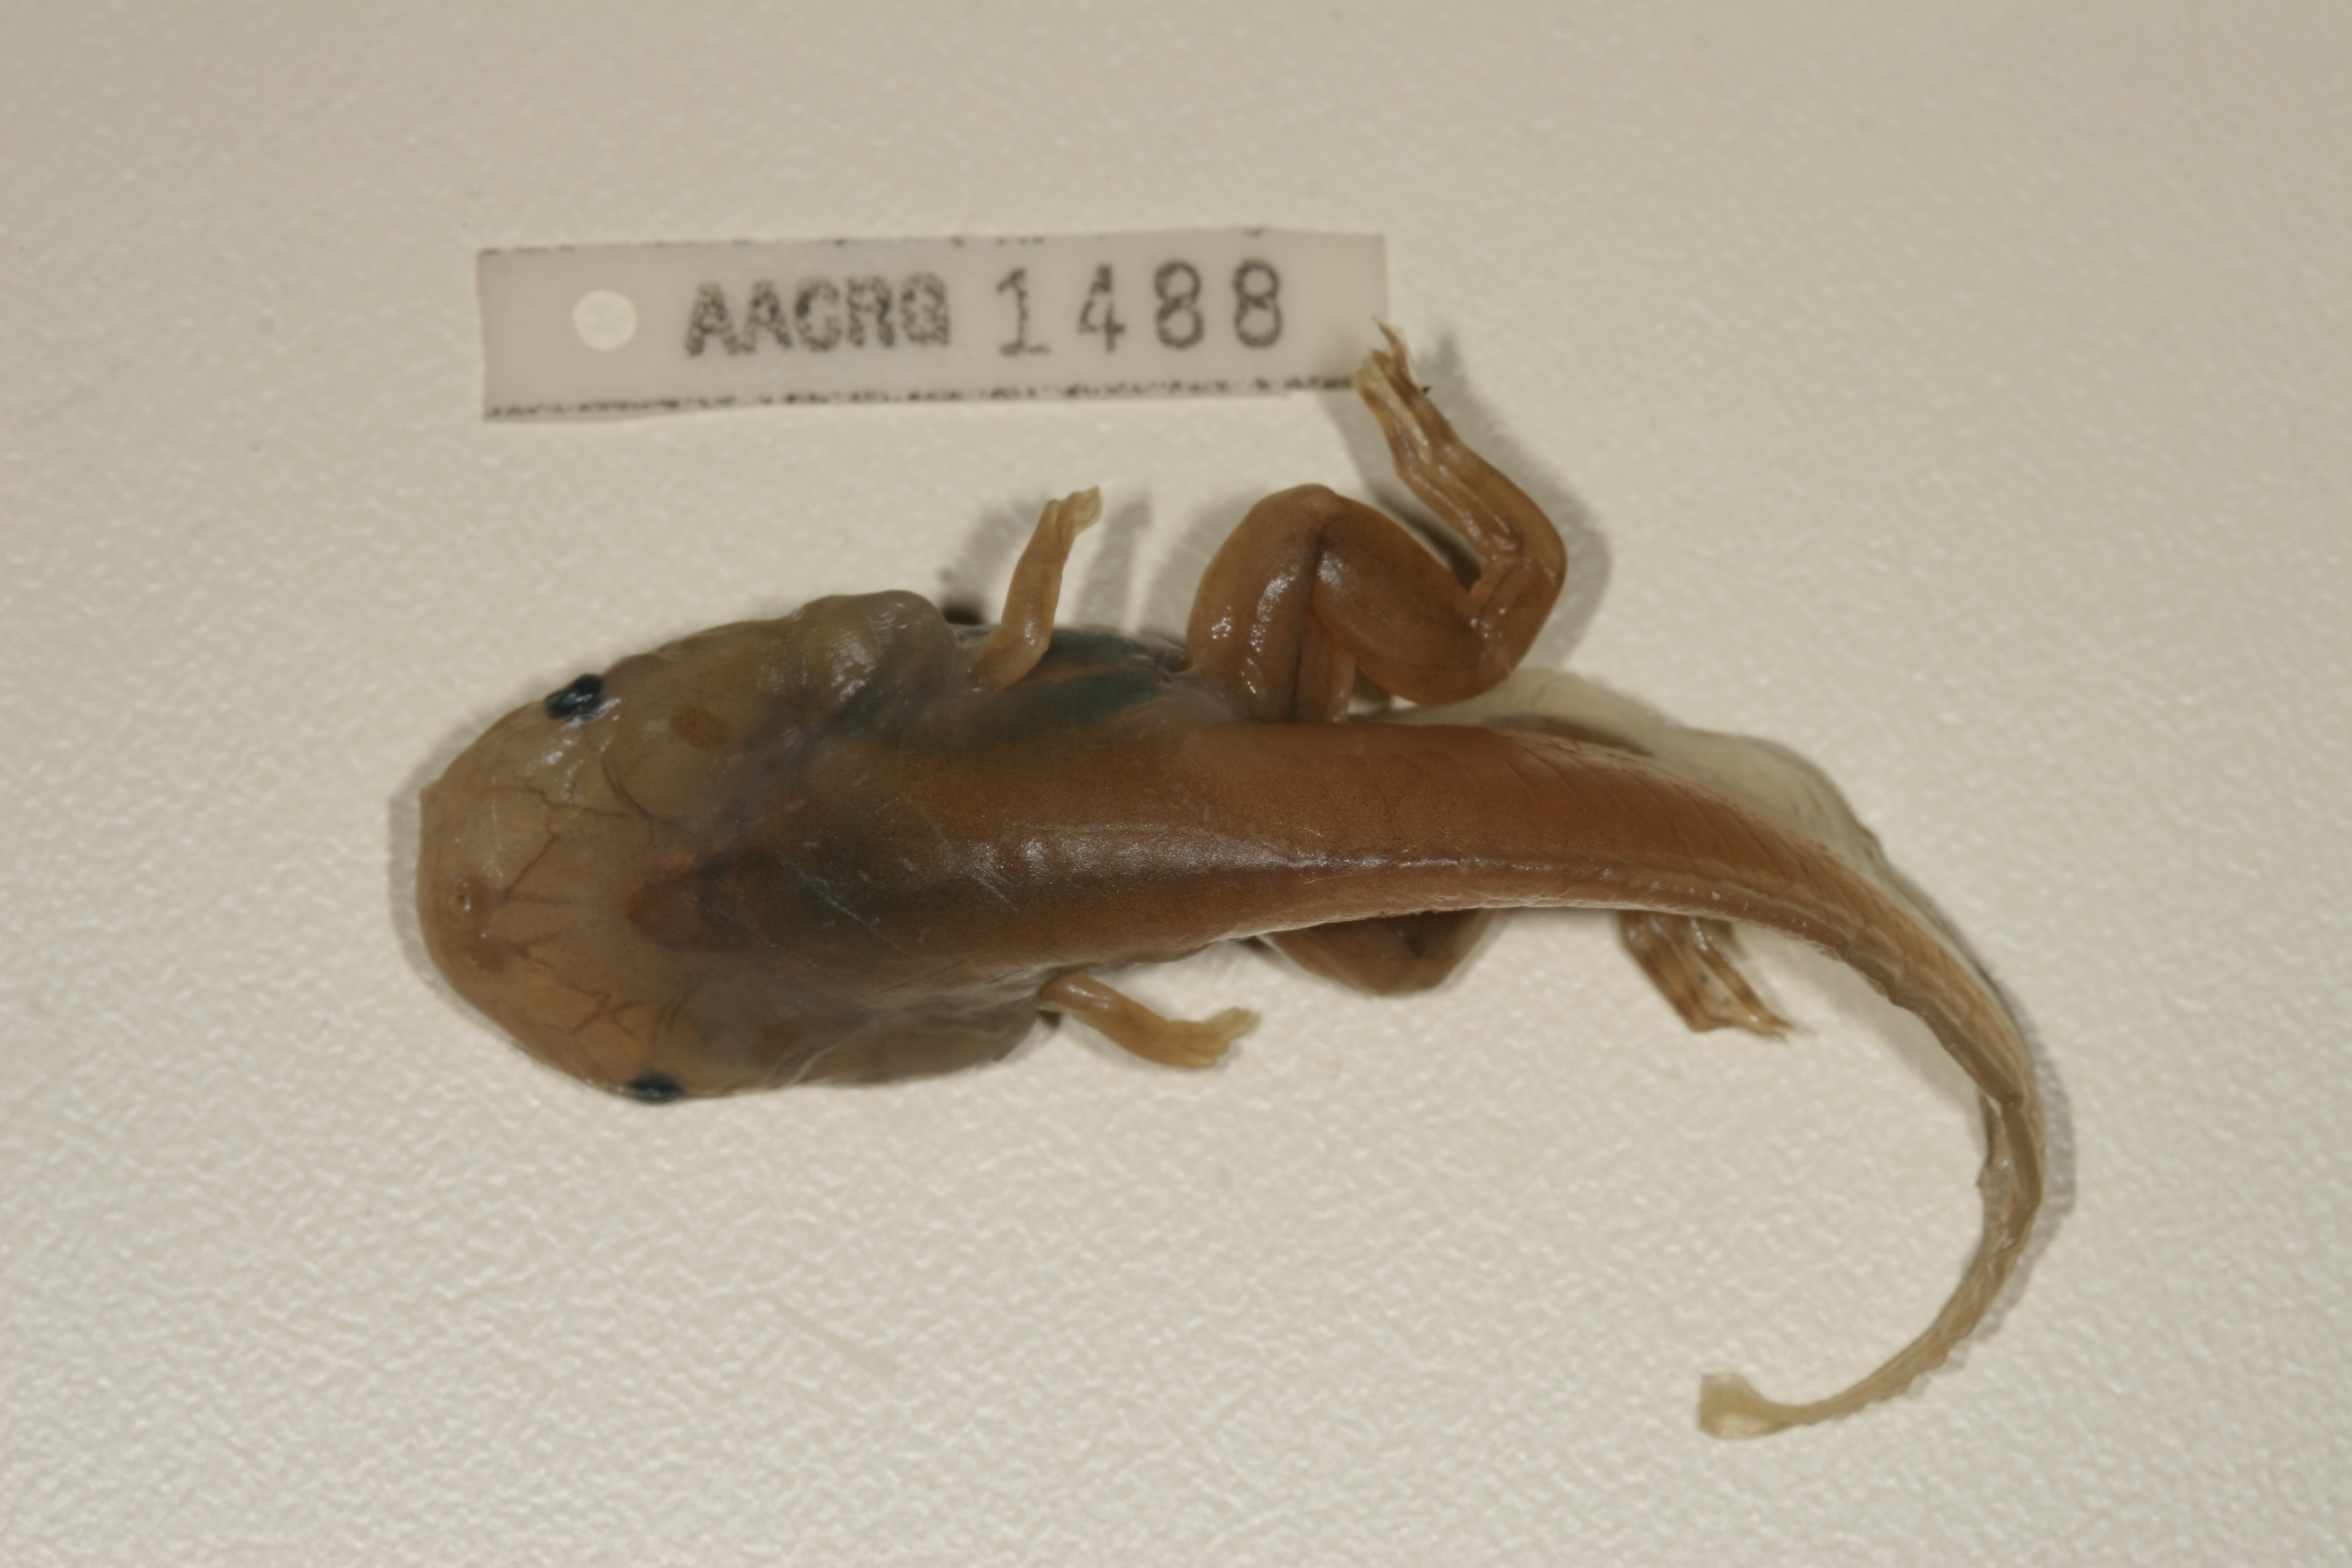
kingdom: Animalia
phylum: Chordata
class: Amphibia
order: Anura
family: Pipidae
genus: Xenopus
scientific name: Xenopus muelleri
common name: Muller's clawed frog
